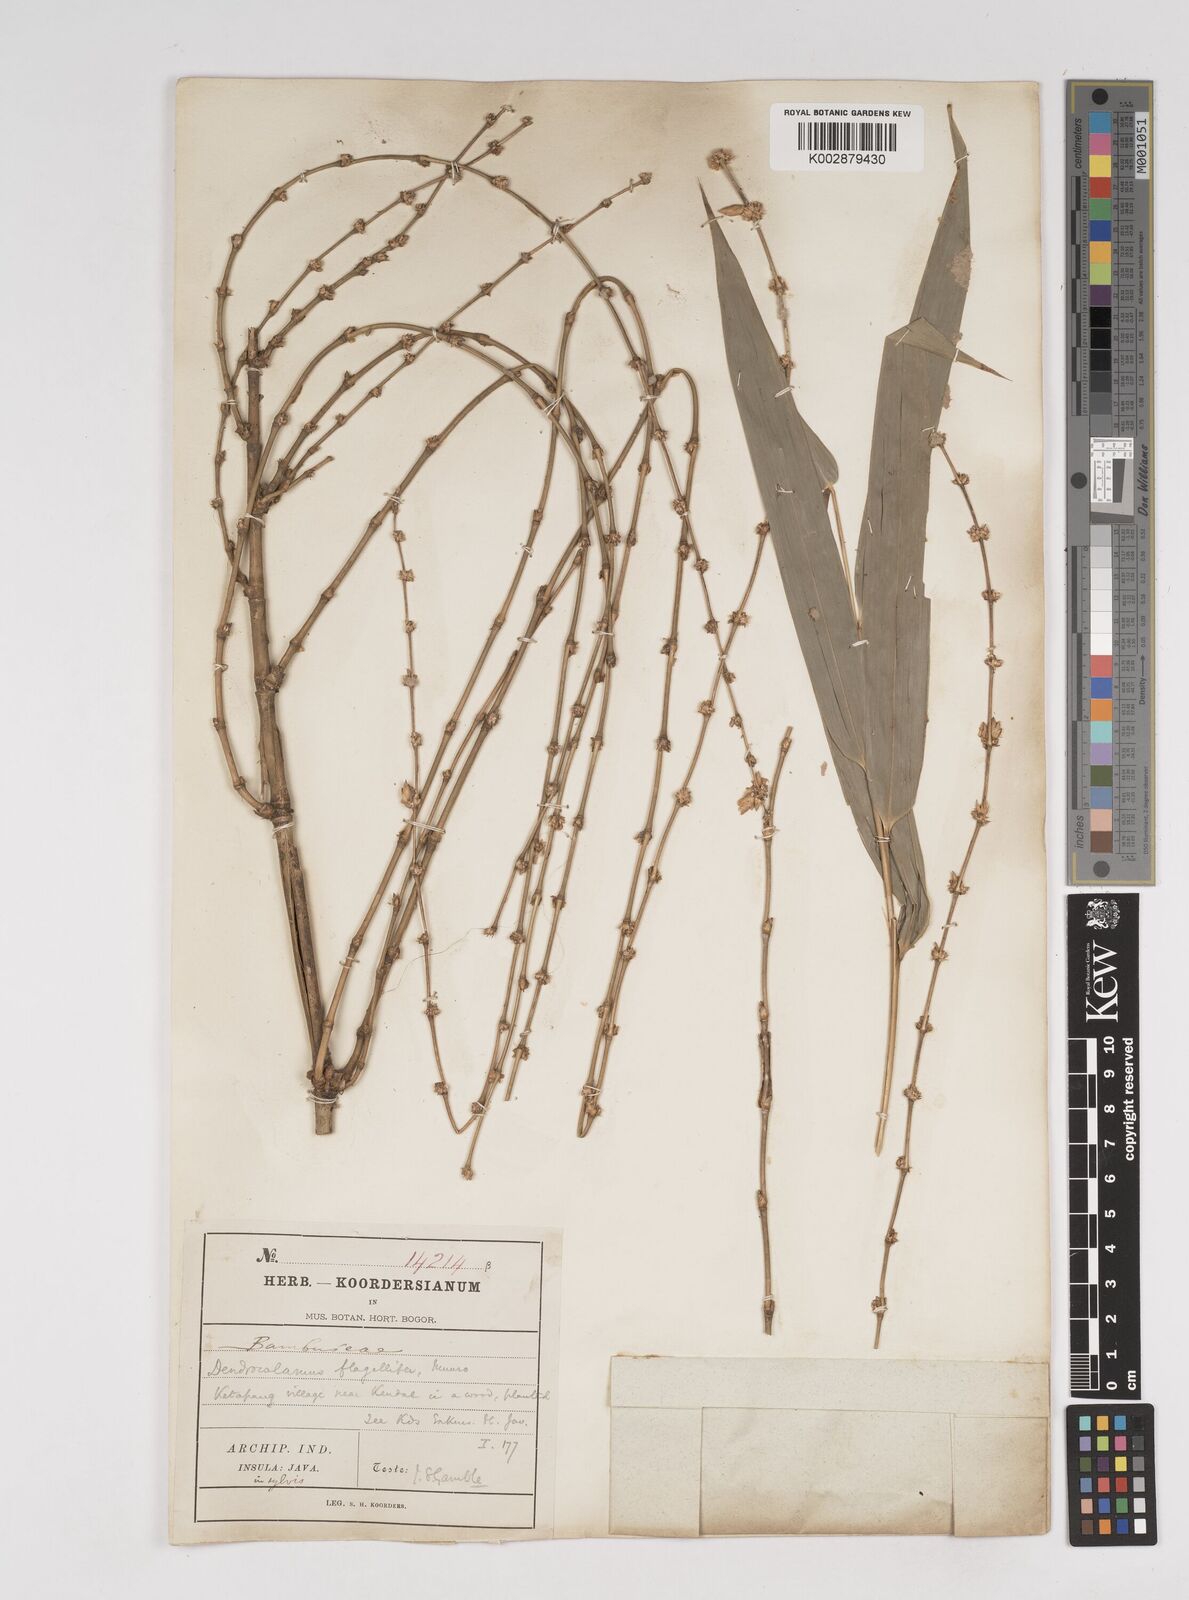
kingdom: Plantae
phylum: Tracheophyta
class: Liliopsida
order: Poales
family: Poaceae
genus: Dendrocalamus
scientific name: Dendrocalamus asper
